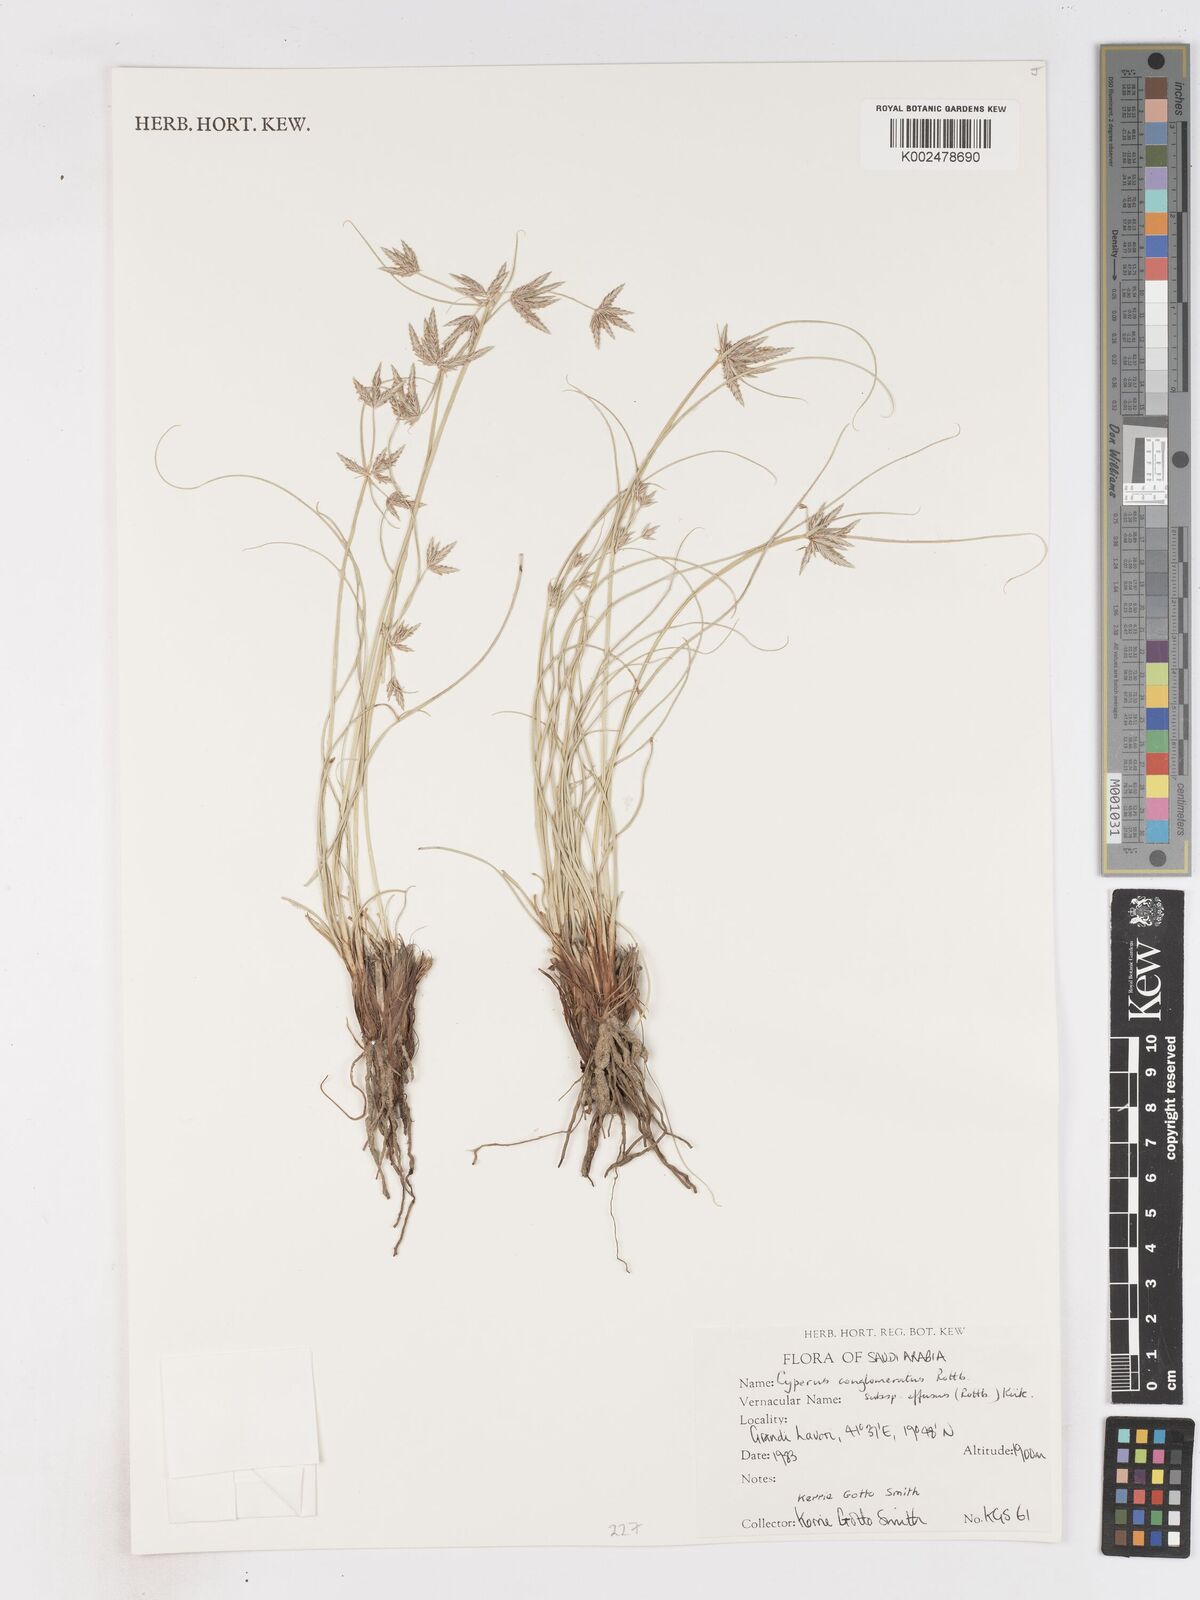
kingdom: Plantae
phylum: Tracheophyta
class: Liliopsida
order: Poales
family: Cyperaceae
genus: Cyperus
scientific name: Cyperus conglomeratus
